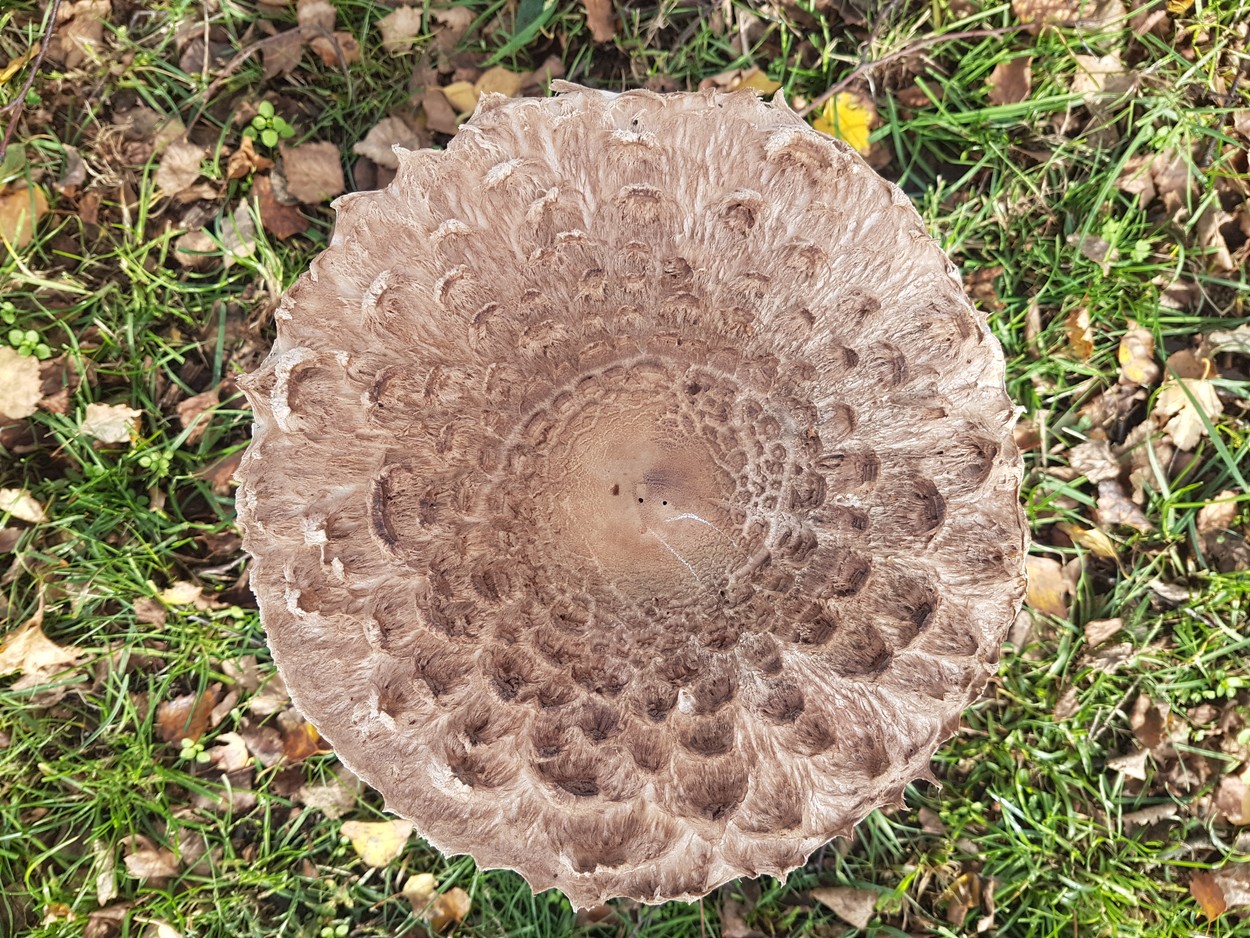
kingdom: Fungi
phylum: Basidiomycota
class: Agaricomycetes
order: Agaricales
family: Agaricaceae
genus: Macrolepiota
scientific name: Macrolepiota procera
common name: stor kæmpeparasolhat
